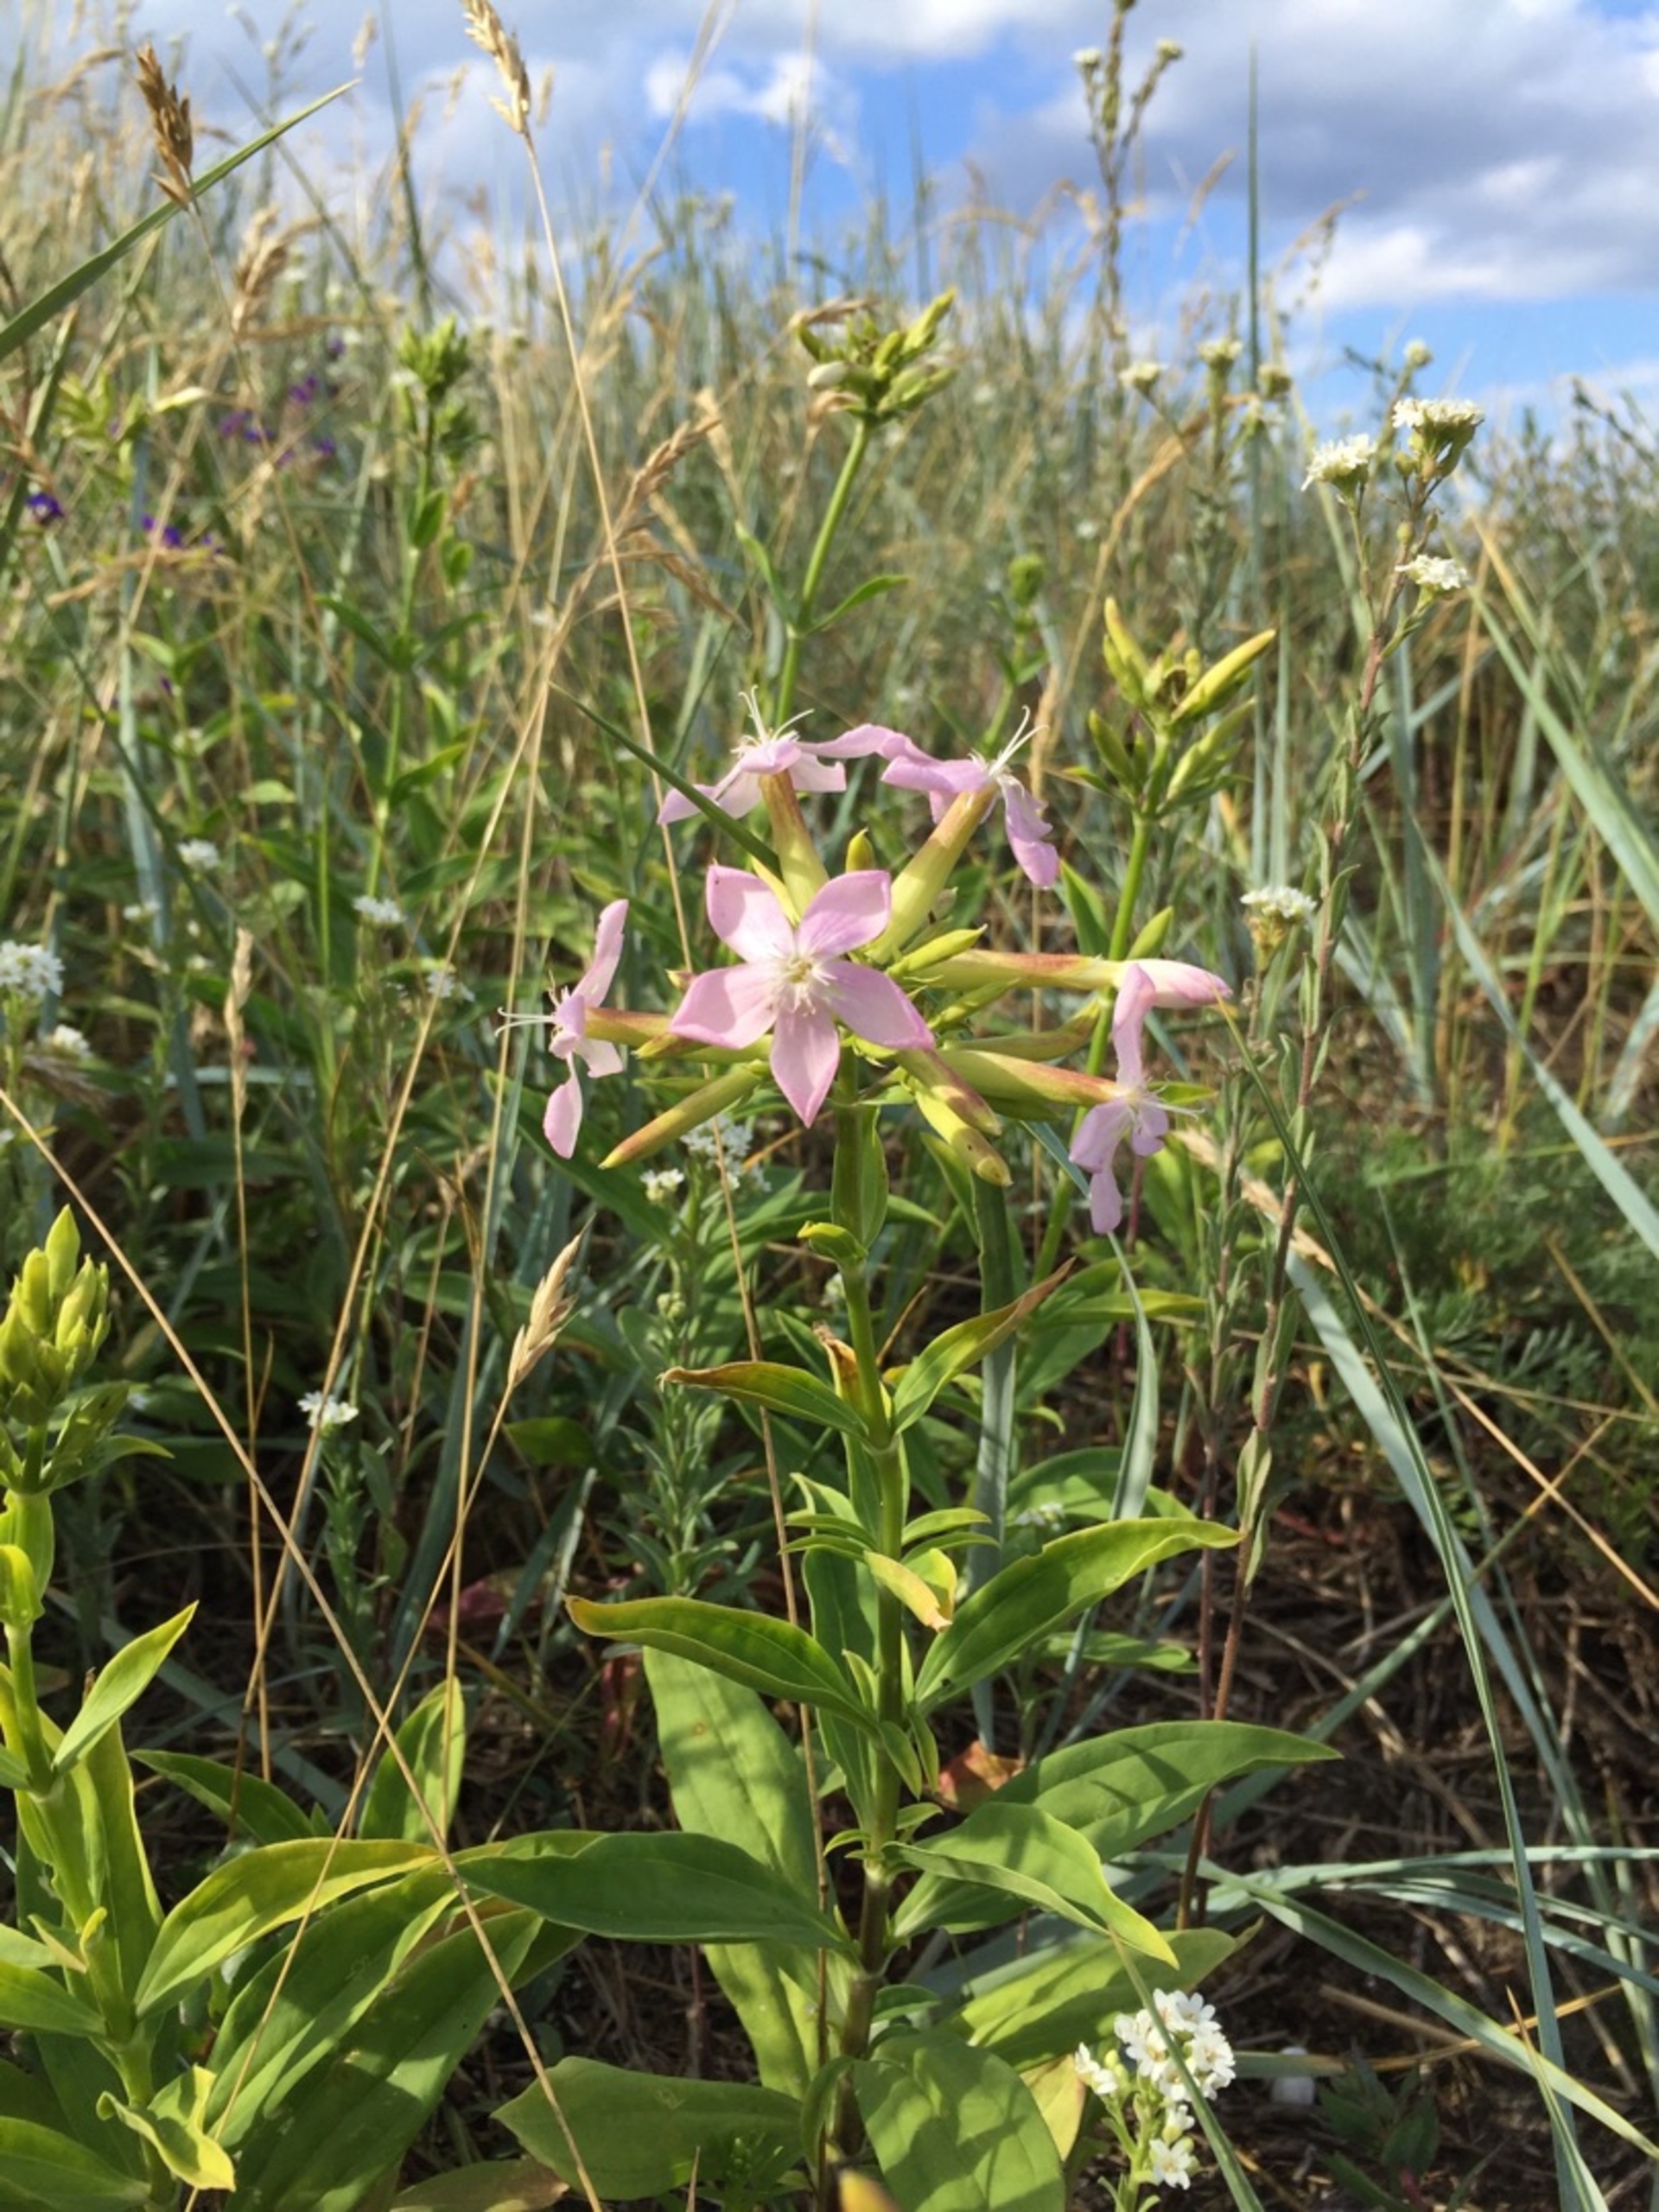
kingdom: Plantae
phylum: Tracheophyta
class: Magnoliopsida
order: Caryophyllales
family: Caryophyllaceae
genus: Saponaria
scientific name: Saponaria officinalis
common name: Sæbeurt
